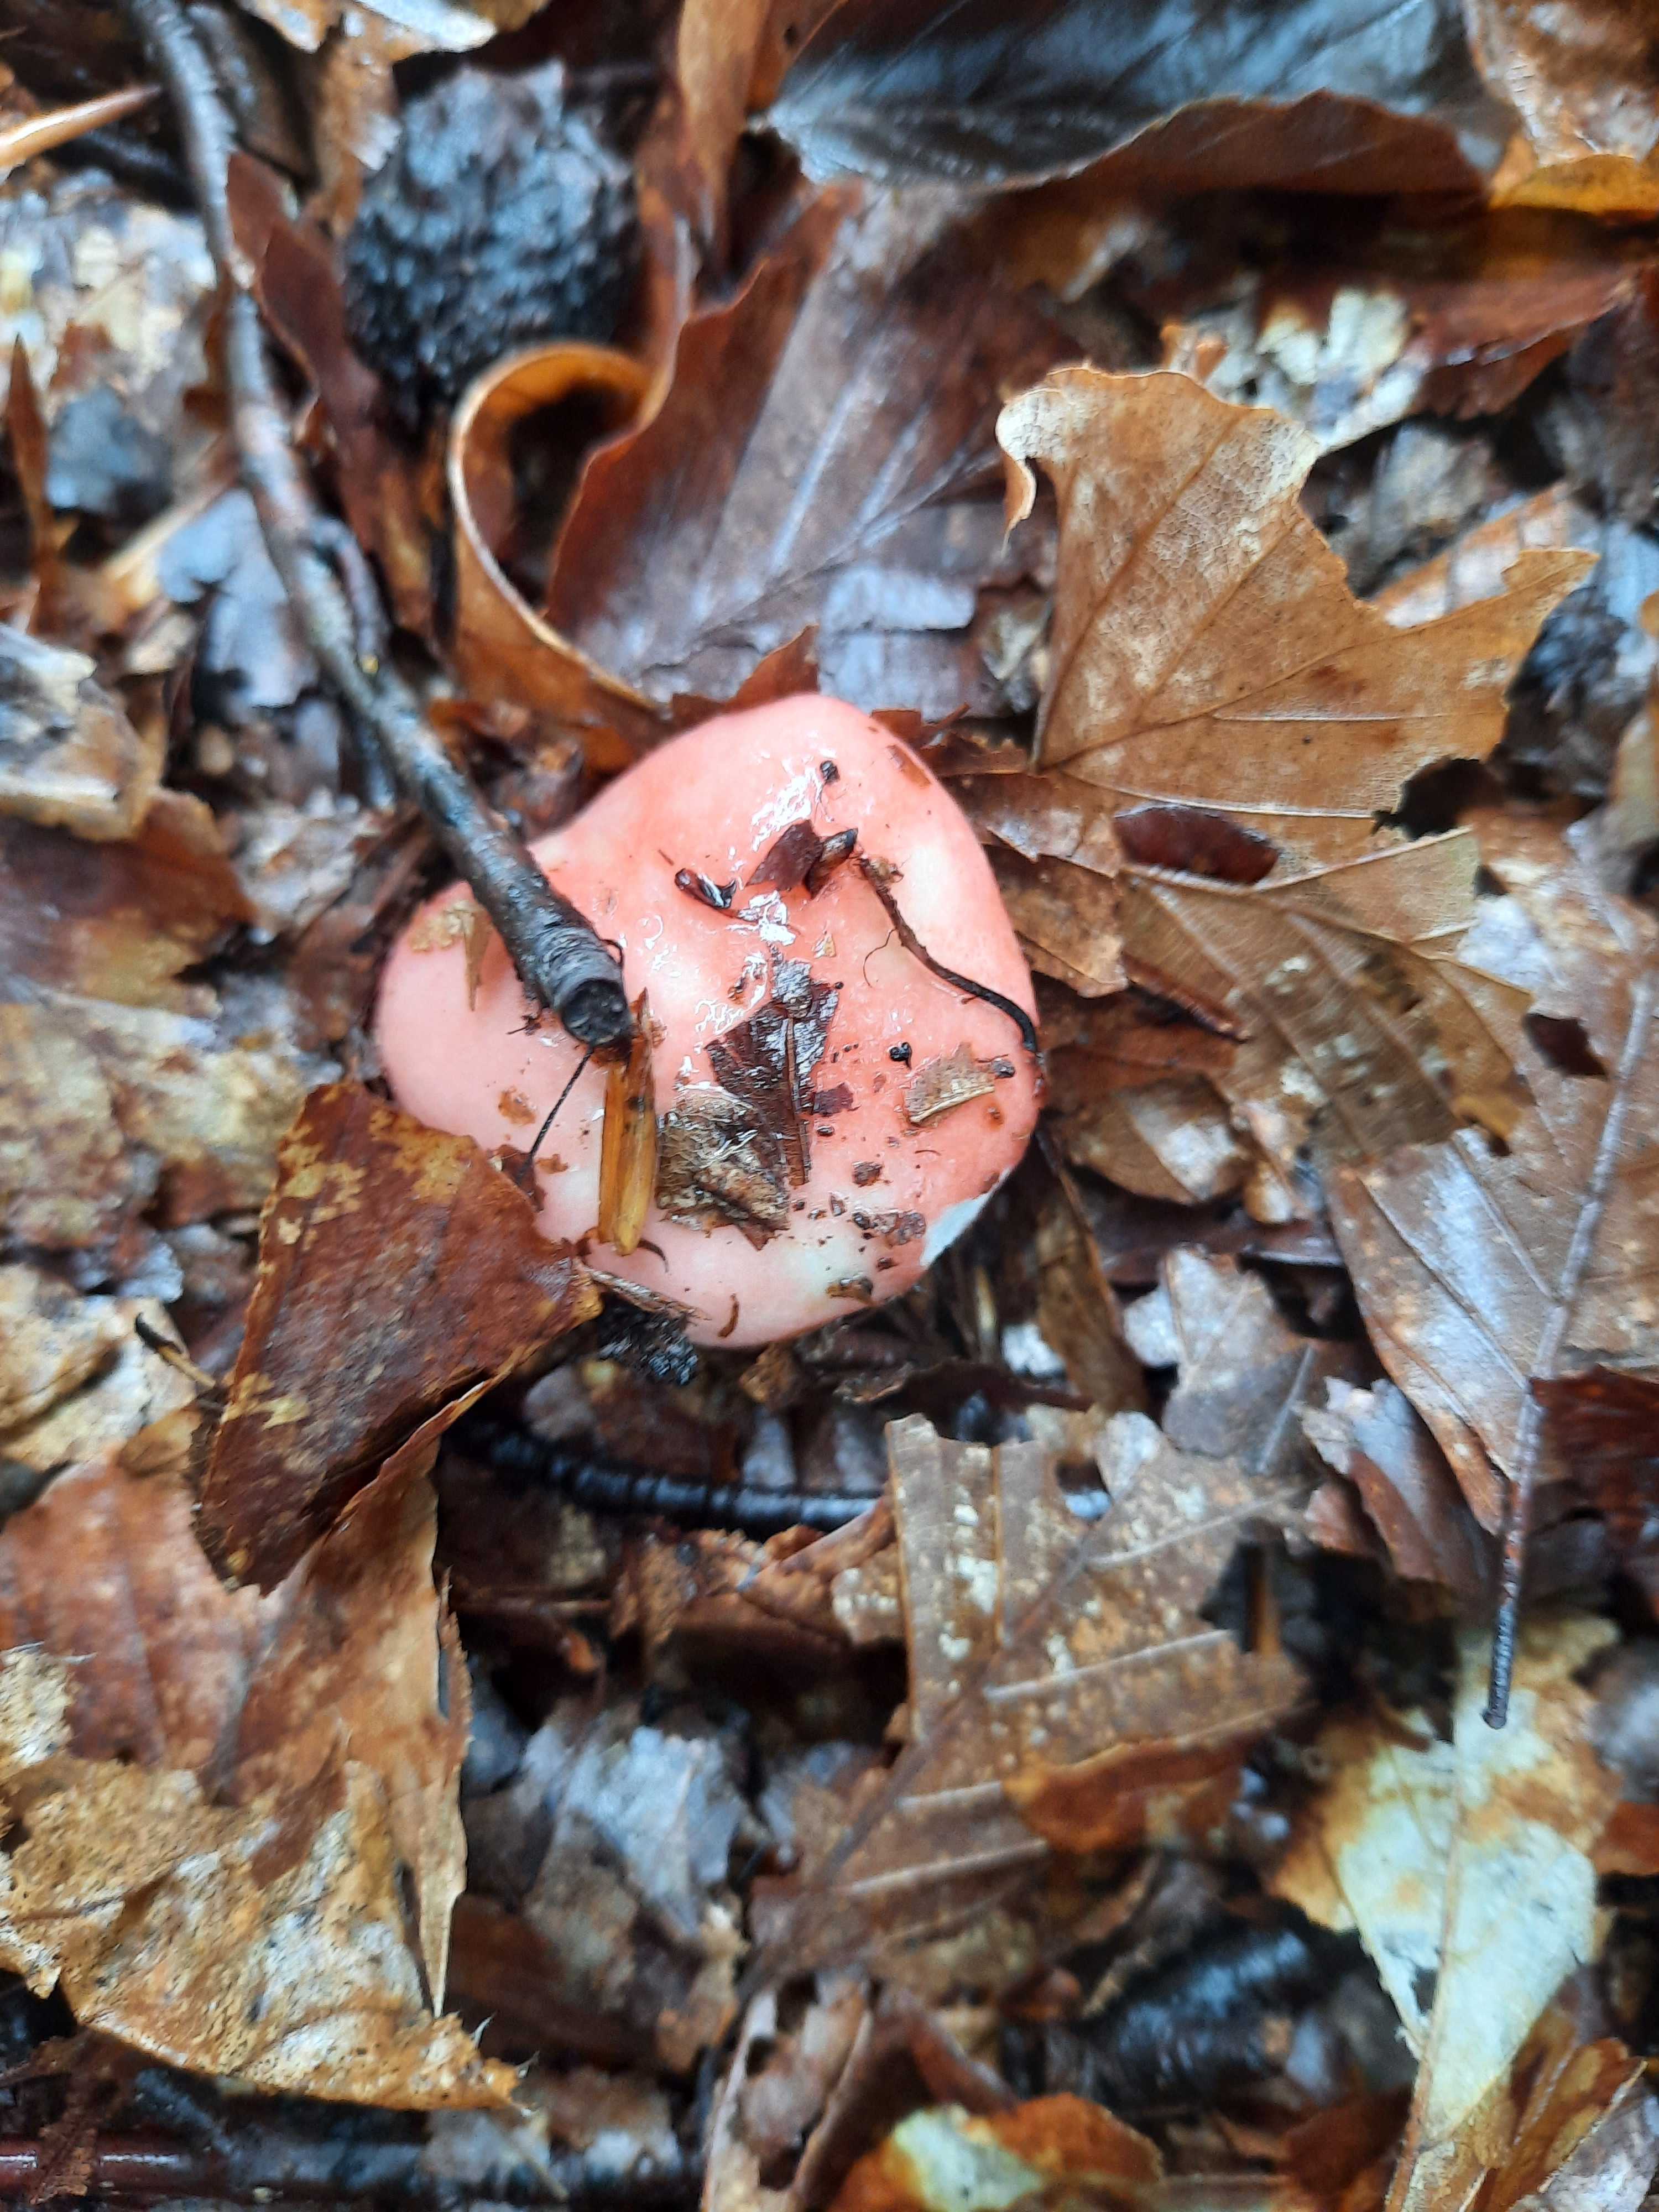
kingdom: Fungi
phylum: Basidiomycota
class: Agaricomycetes
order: Russulales
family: Russulaceae
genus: Russula
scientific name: Russula nobilis
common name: lille gift-skørhat
